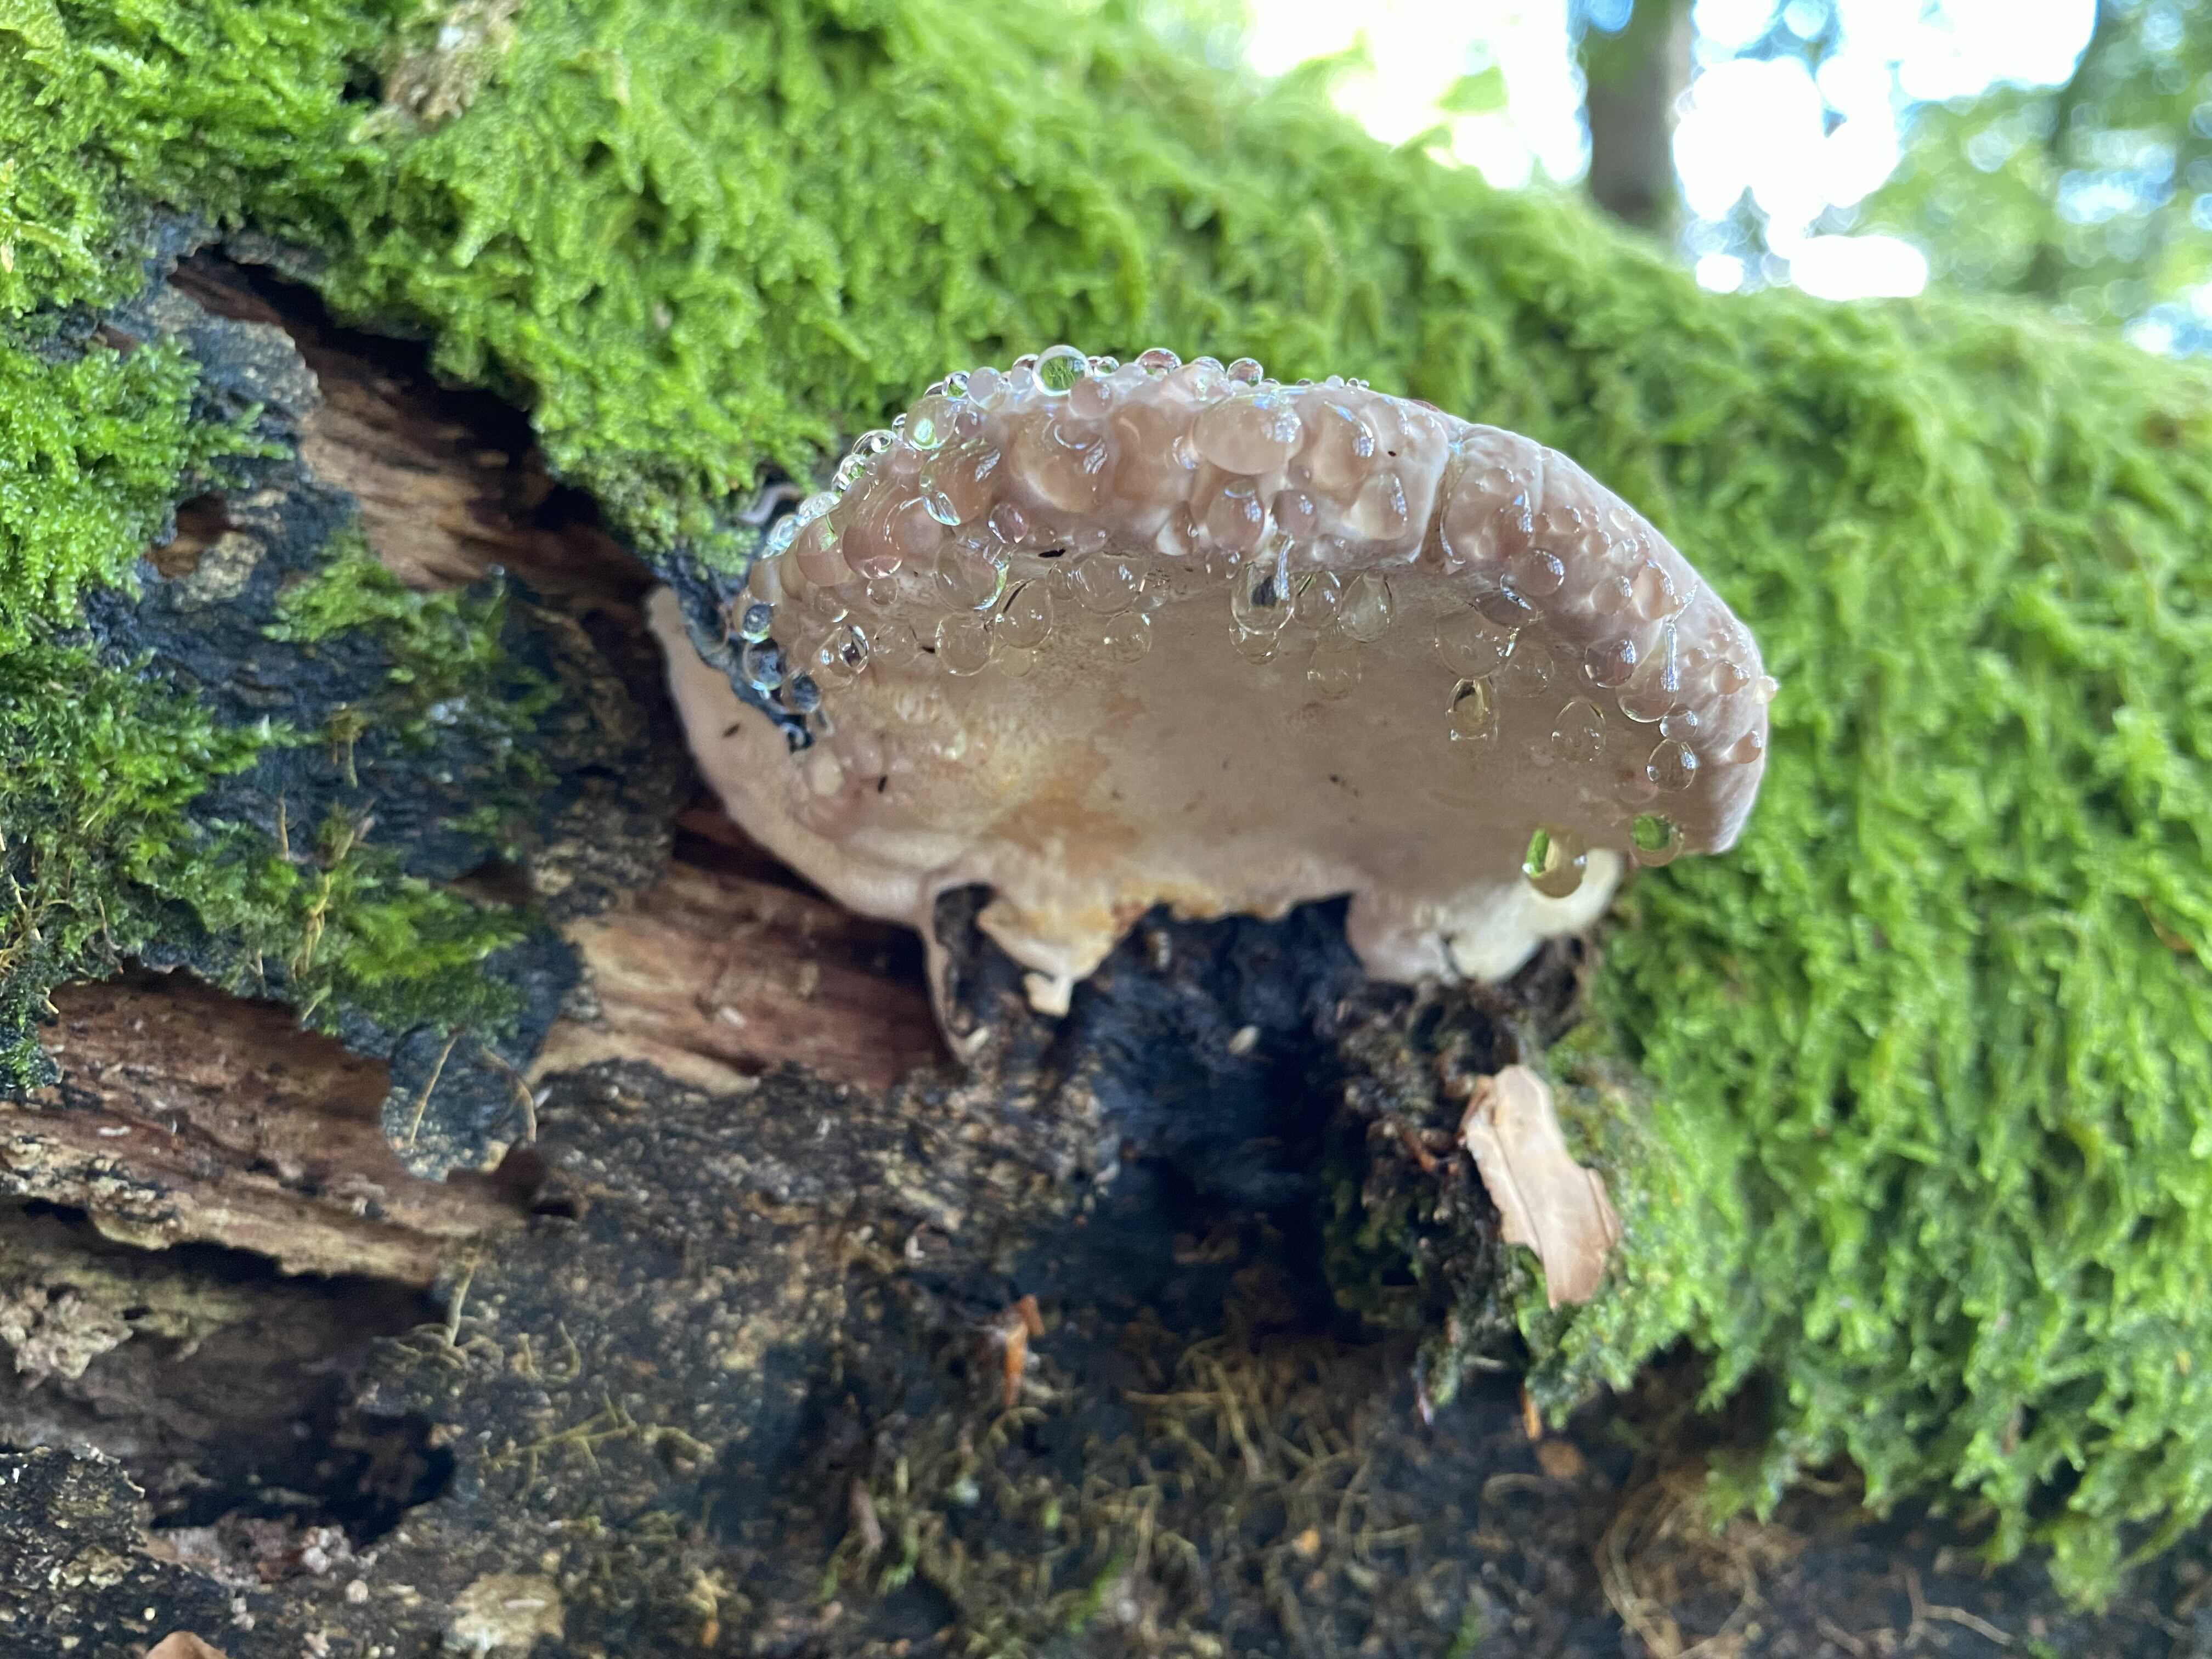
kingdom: Fungi
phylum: Basidiomycota
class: Agaricomycetes
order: Polyporales
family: Fomitopsidaceae
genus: Fomitopsis
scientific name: Fomitopsis pinicola
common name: randbæltet hovporesvamp
